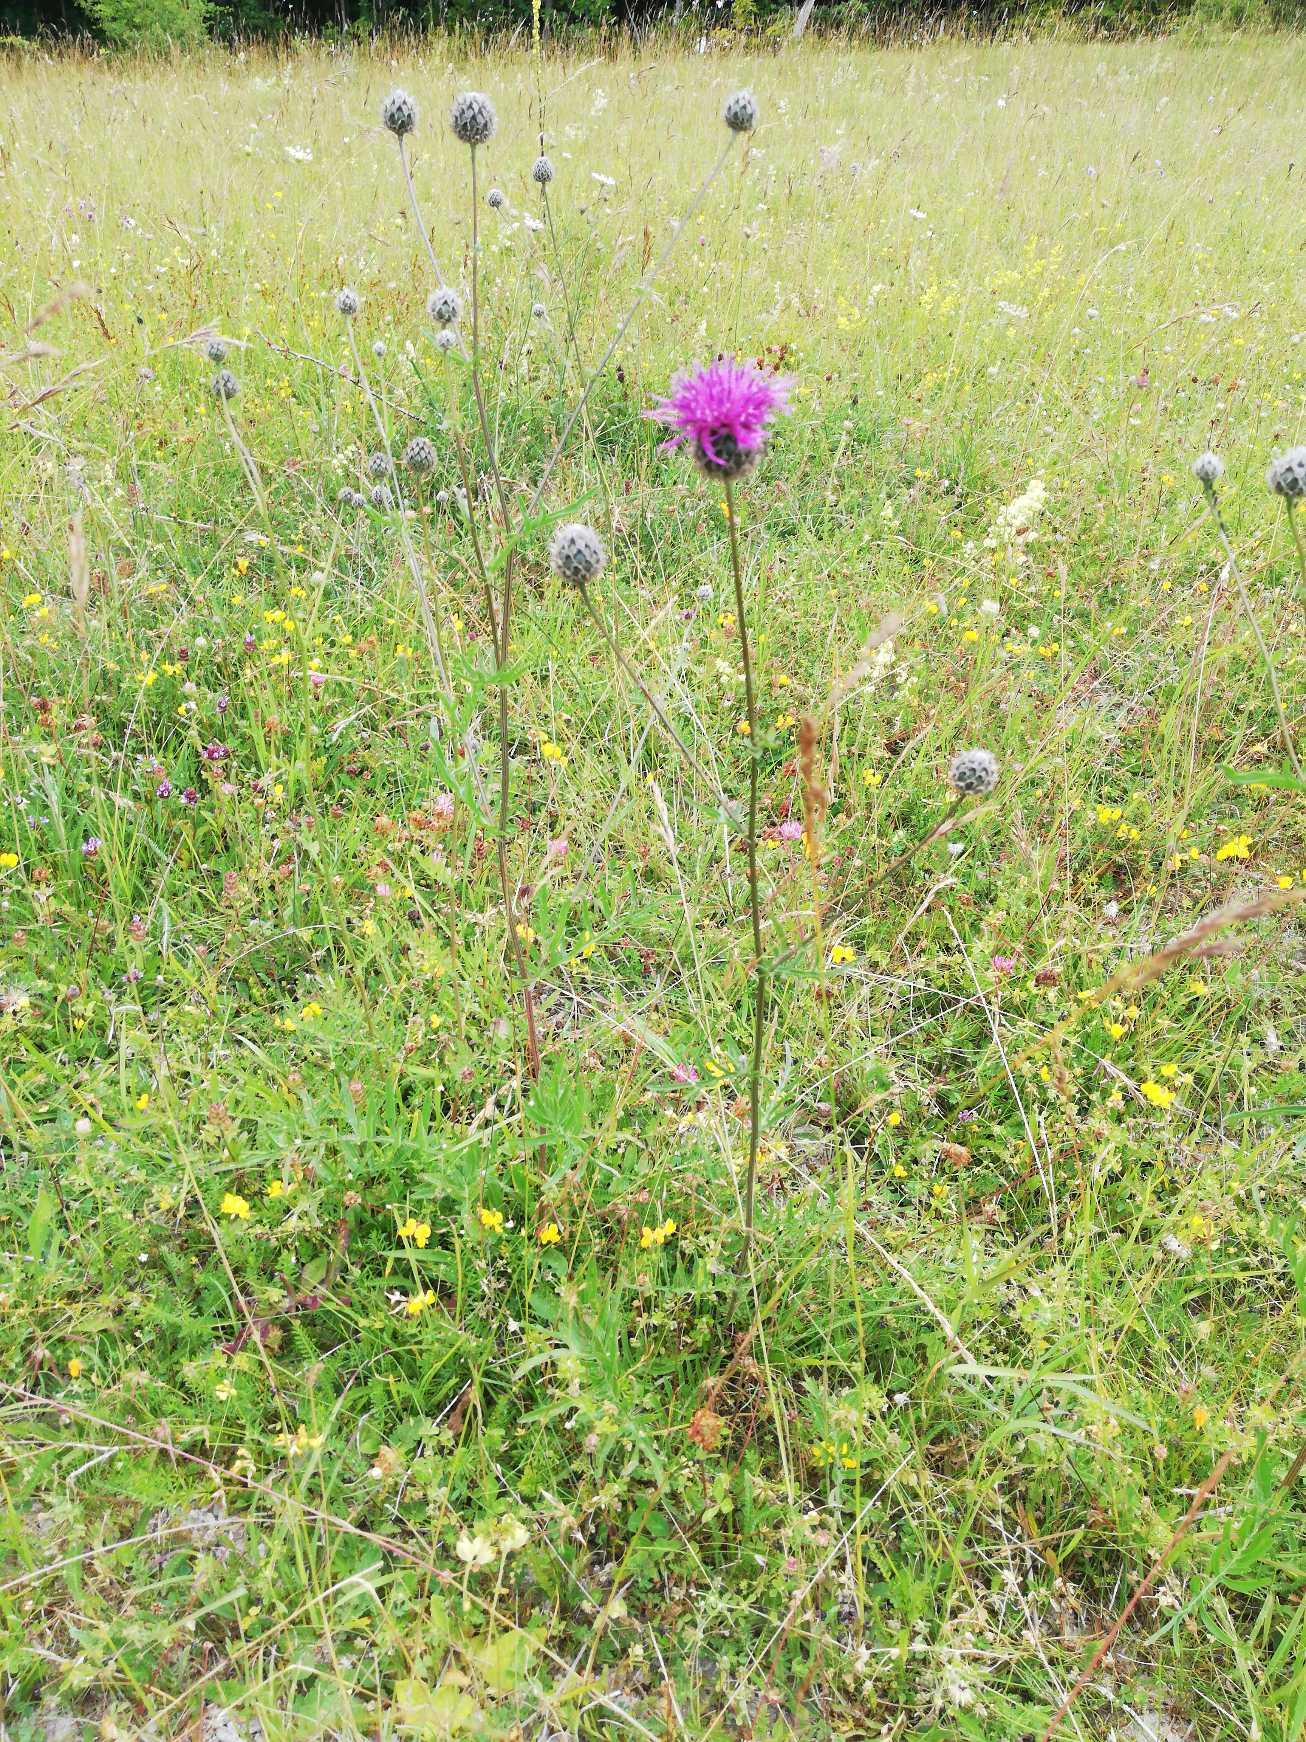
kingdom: Plantae
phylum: Tracheophyta
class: Magnoliopsida
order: Asterales
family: Asteraceae
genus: Centaurea
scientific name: Centaurea scabiosa
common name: Stor knopurt
